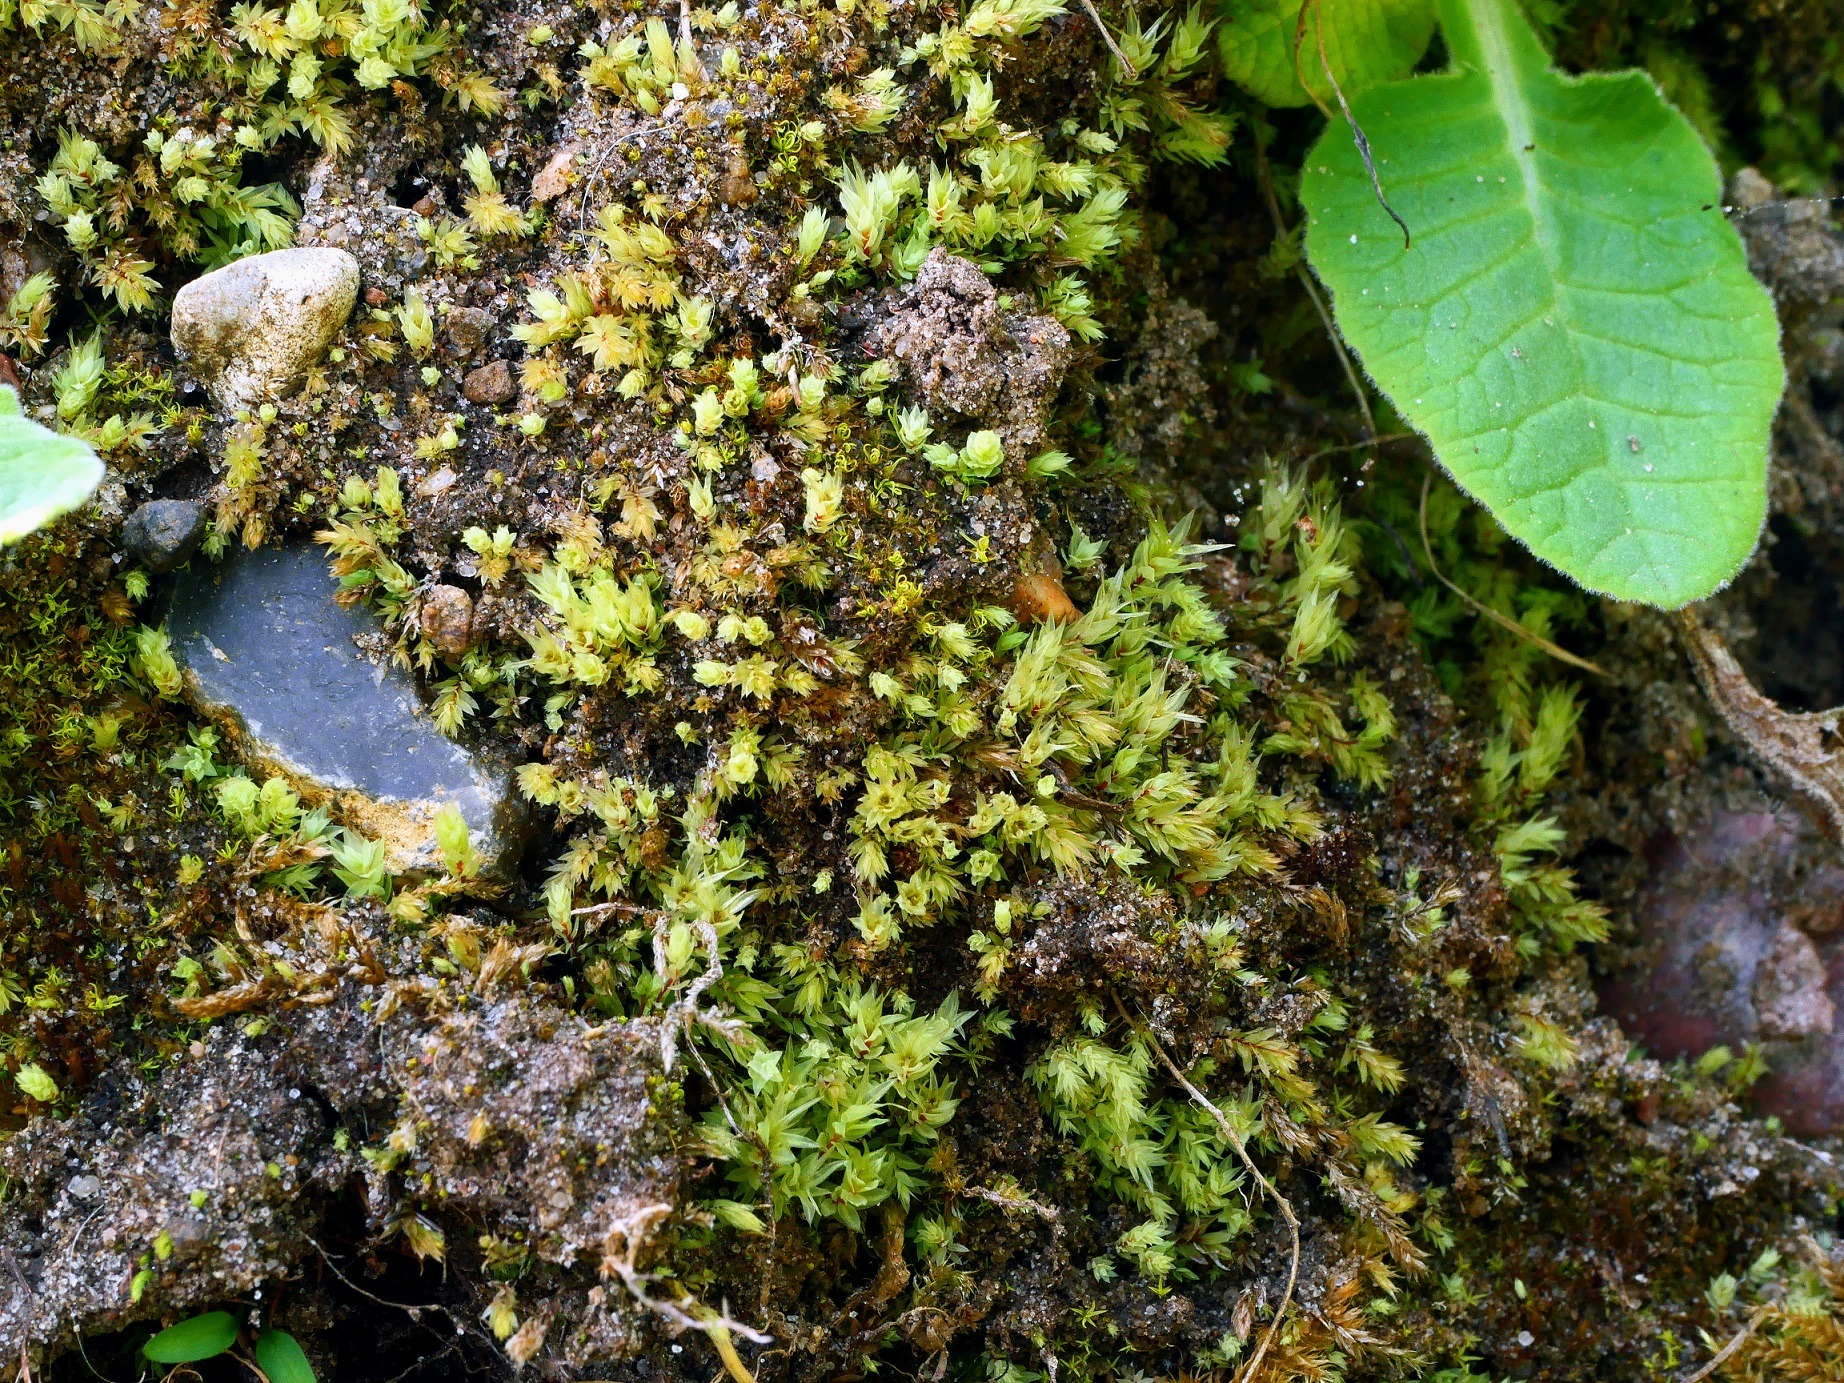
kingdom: Plantae
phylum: Bryophyta
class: Bryopsida
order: Bryales
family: Mniaceae
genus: Pohlia
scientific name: Pohlia cruda
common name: Opaliserende nikkemos
